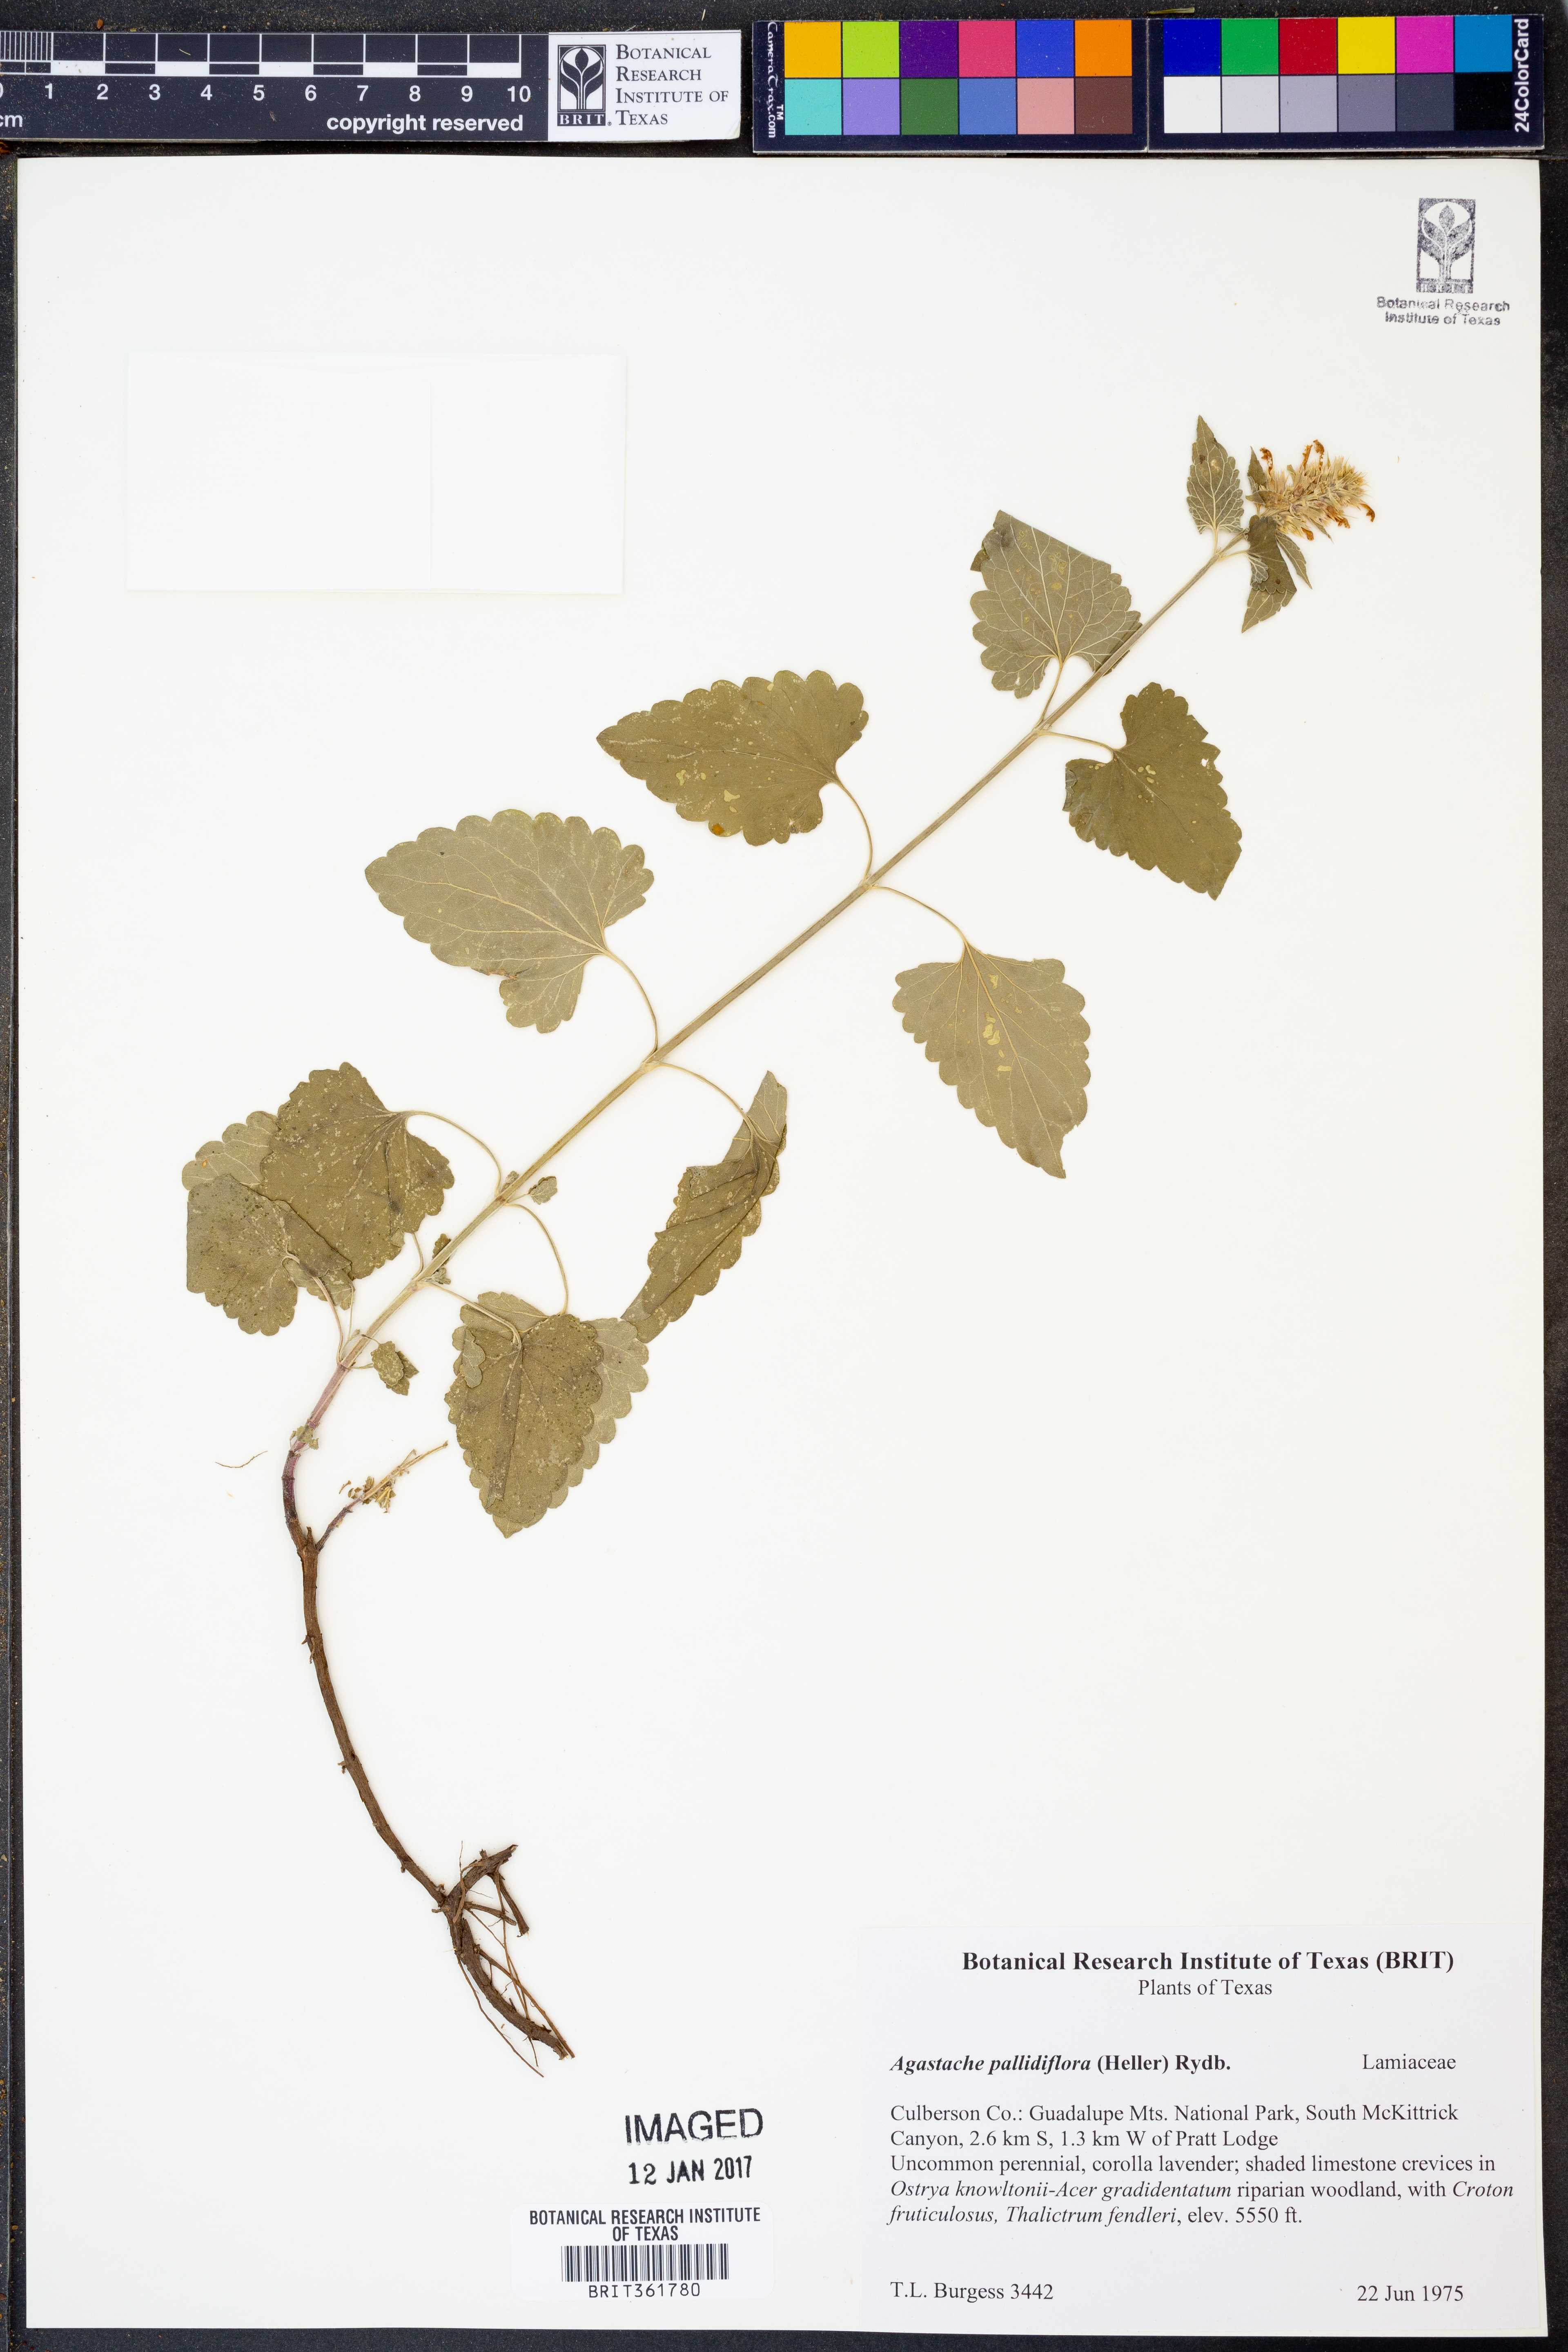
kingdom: Plantae
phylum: Tracheophyta
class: Magnoliopsida
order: Lamiales
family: Lamiaceae
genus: Agastache
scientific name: Agastache pallidiflora
